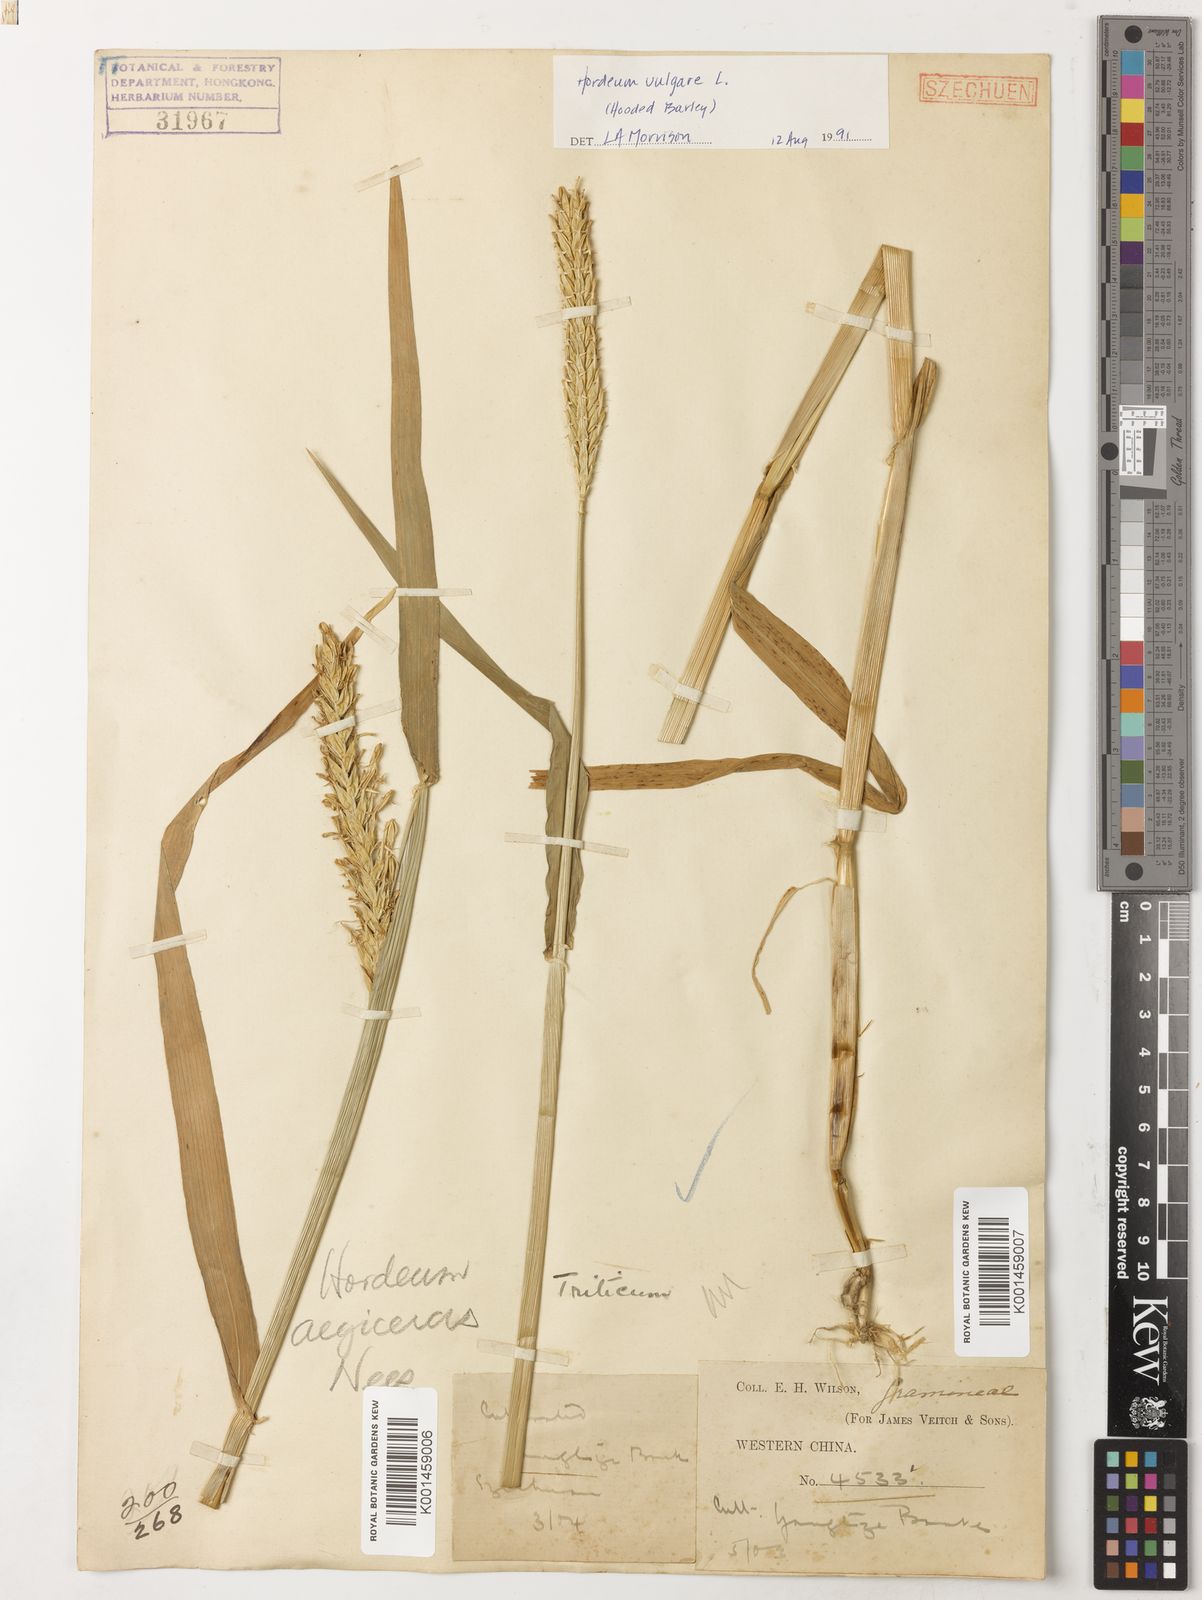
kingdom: Plantae
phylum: Tracheophyta
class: Liliopsida
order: Poales
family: Poaceae
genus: Hordeum
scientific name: Hordeum vulgare
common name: Common barley
